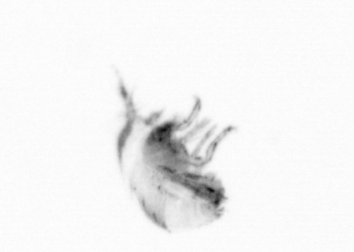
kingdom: Animalia
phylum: Arthropoda
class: Copepoda
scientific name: Copepoda
